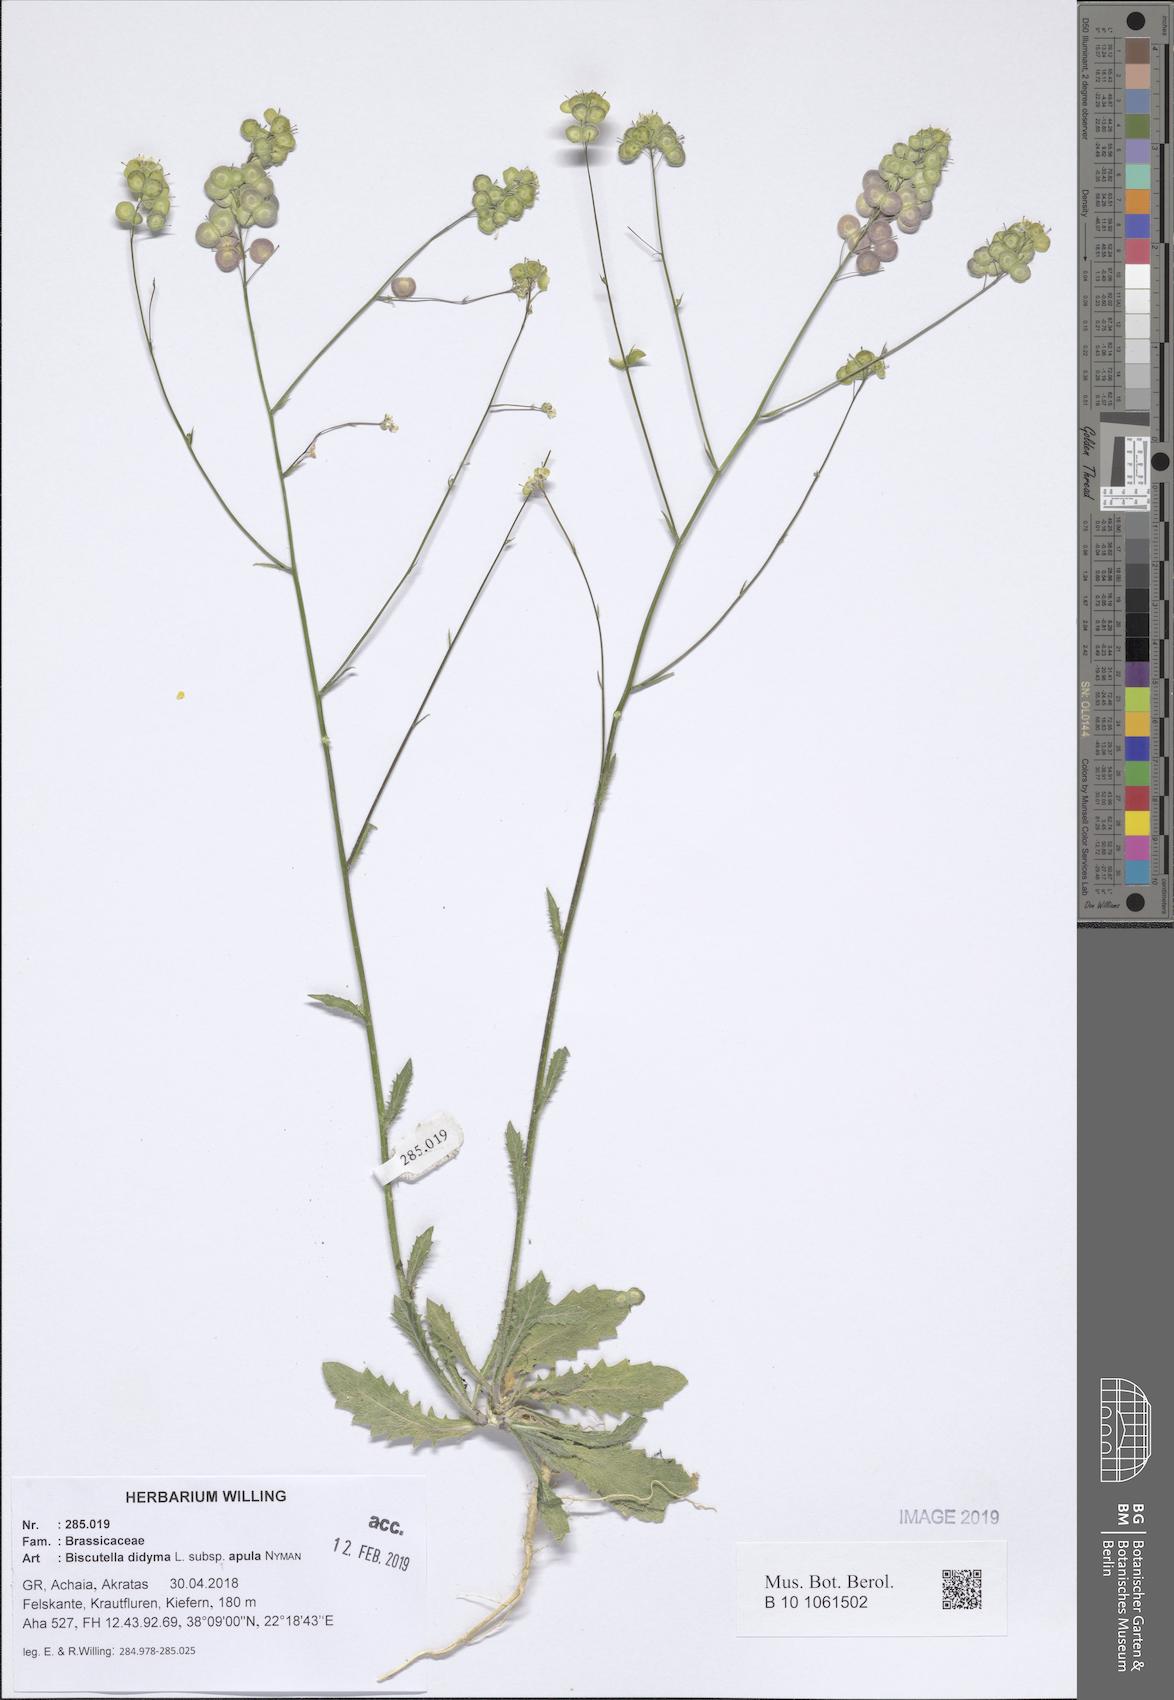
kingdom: Plantae
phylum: Tracheophyta
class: Magnoliopsida
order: Brassicales
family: Brassicaceae
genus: Biscutella
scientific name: Biscutella didyma
